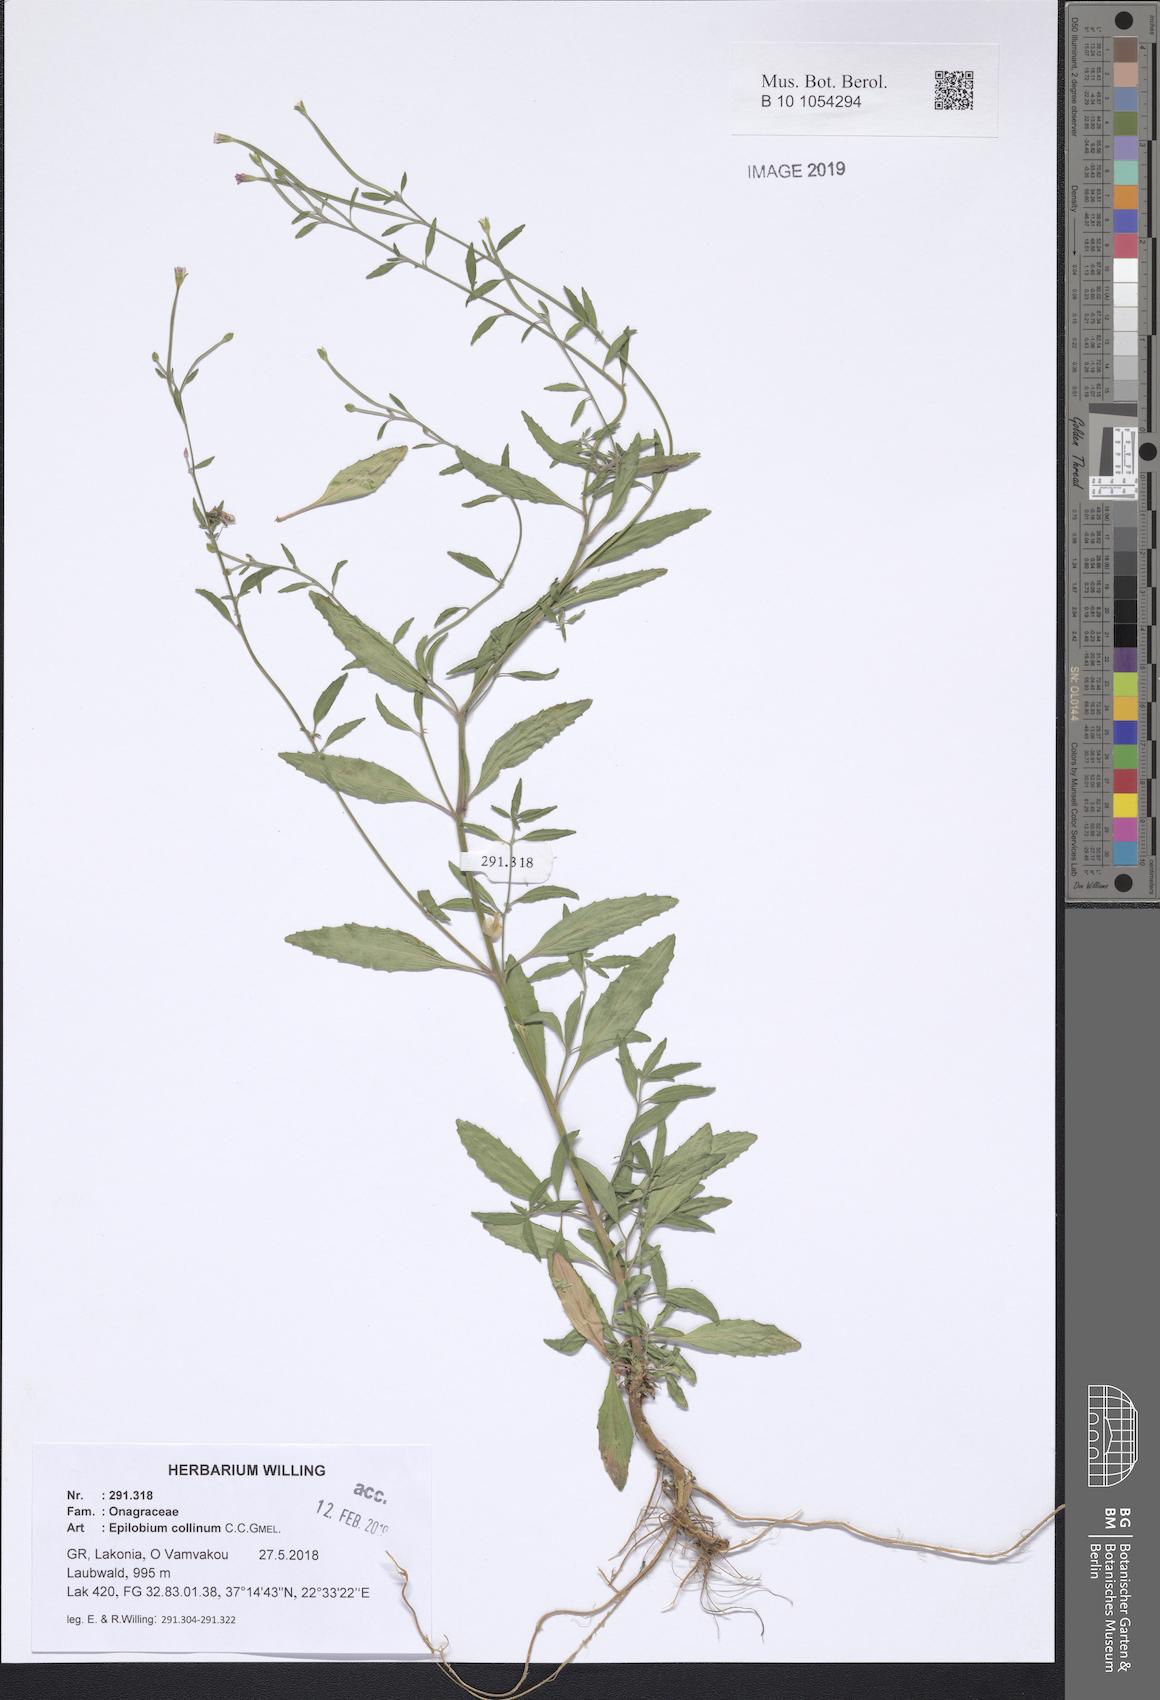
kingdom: Plantae
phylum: Tracheophyta
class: Magnoliopsida
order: Myrtales
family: Onagraceae
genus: Epilobium
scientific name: Epilobium lanceolatum
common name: Spear-leaved willowherb
